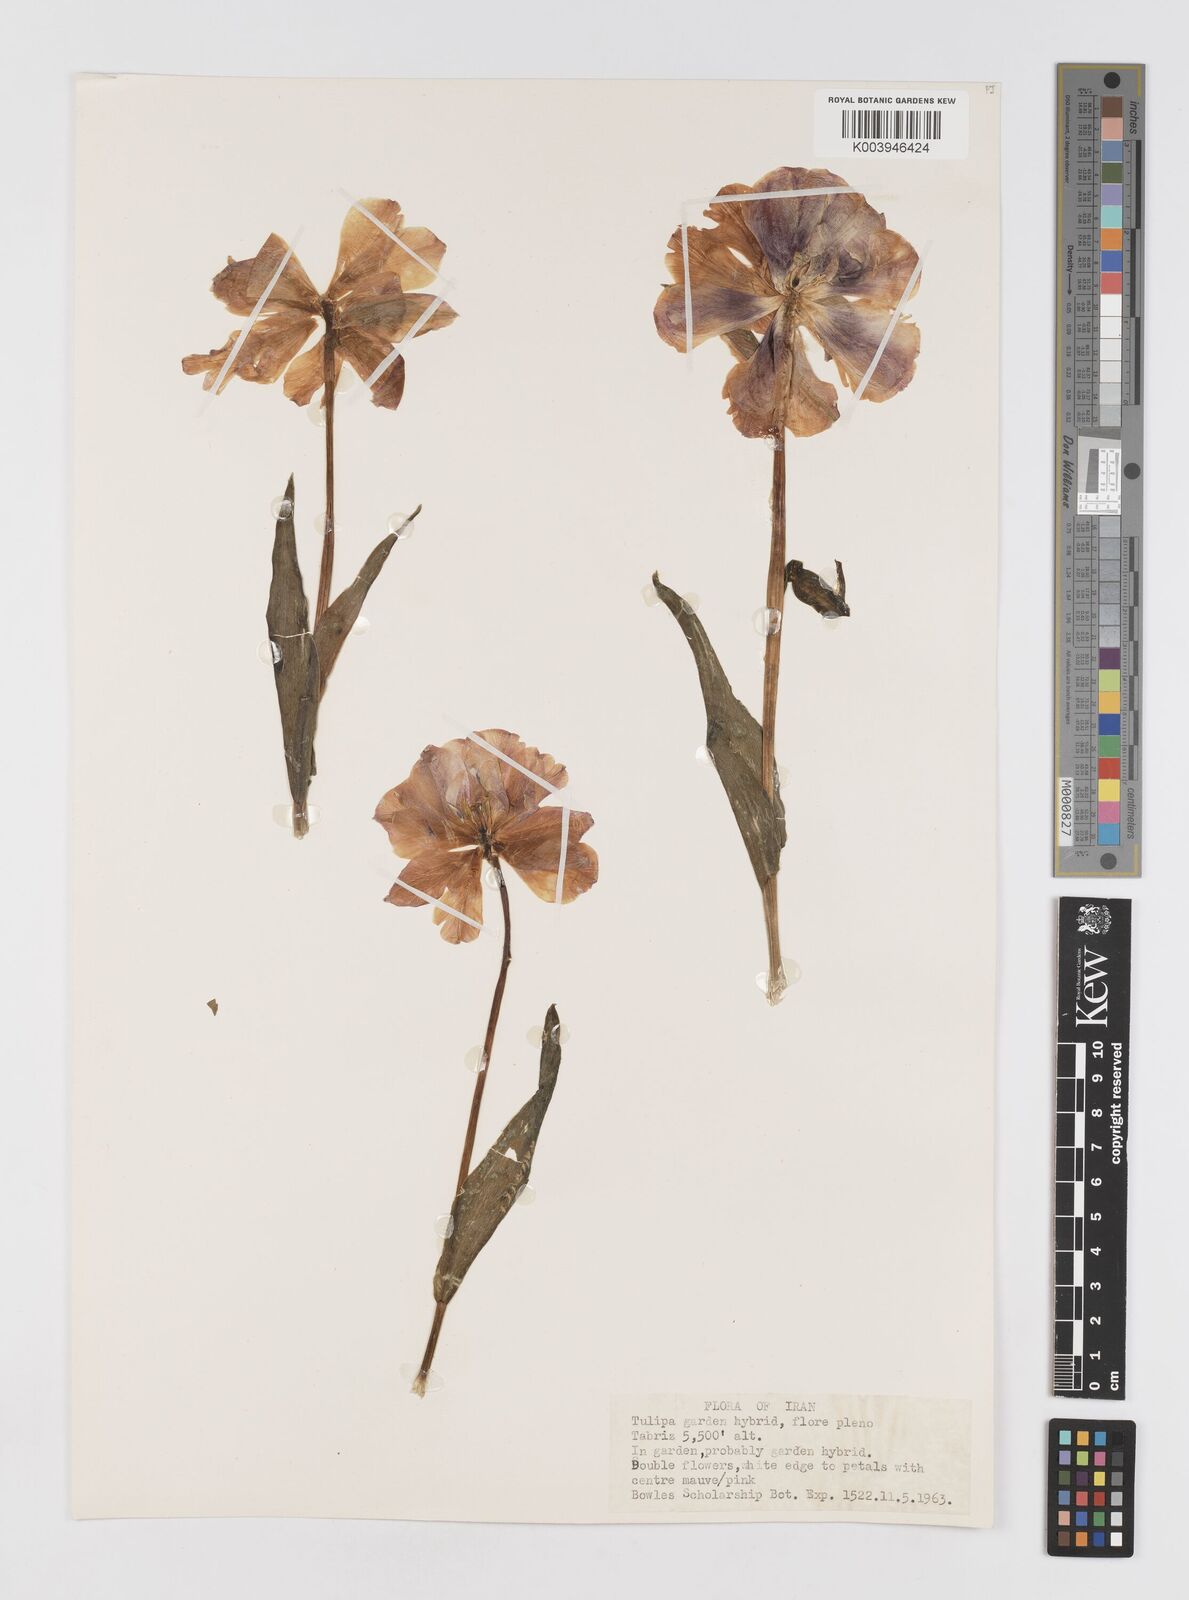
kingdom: Plantae
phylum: Tracheophyta
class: Liliopsida
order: Liliales
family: Liliaceae
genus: Tulipa
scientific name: Tulipa
